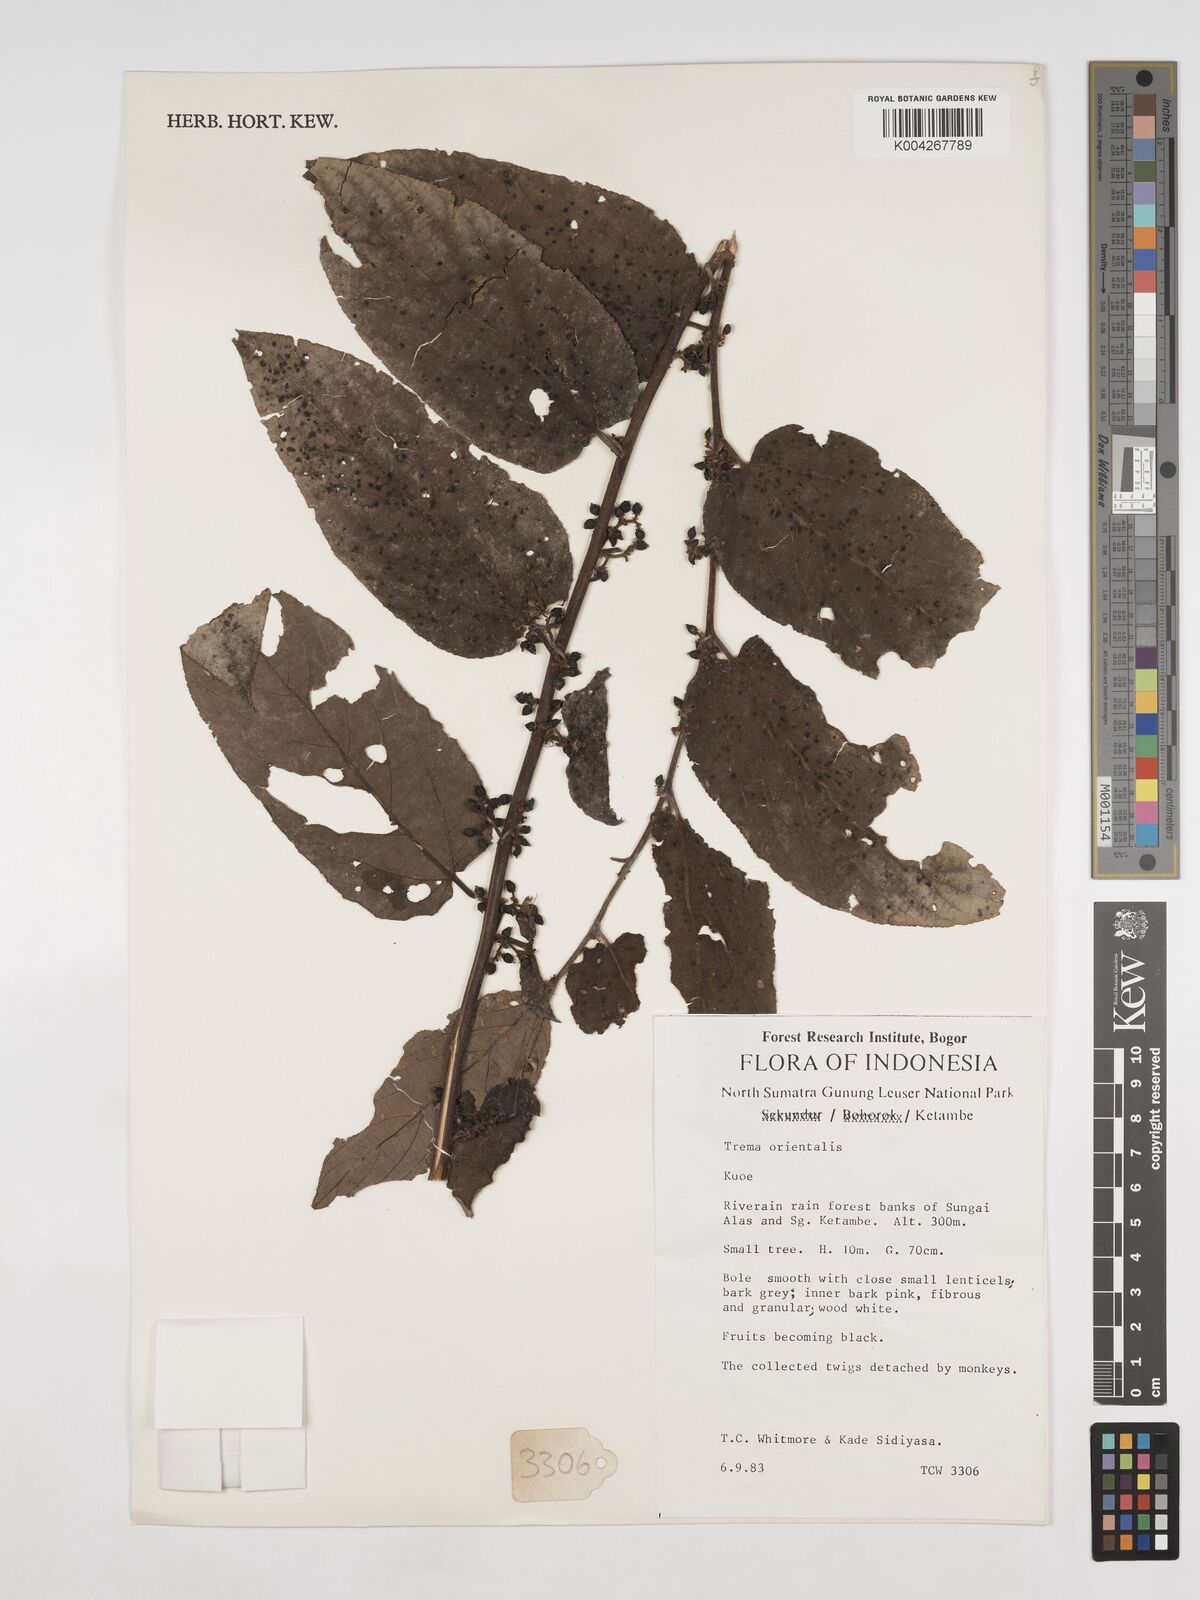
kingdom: Plantae
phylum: Tracheophyta
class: Magnoliopsida
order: Rosales
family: Cannabaceae
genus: Trema
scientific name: Trema orientale
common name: Indian charcoal tree
